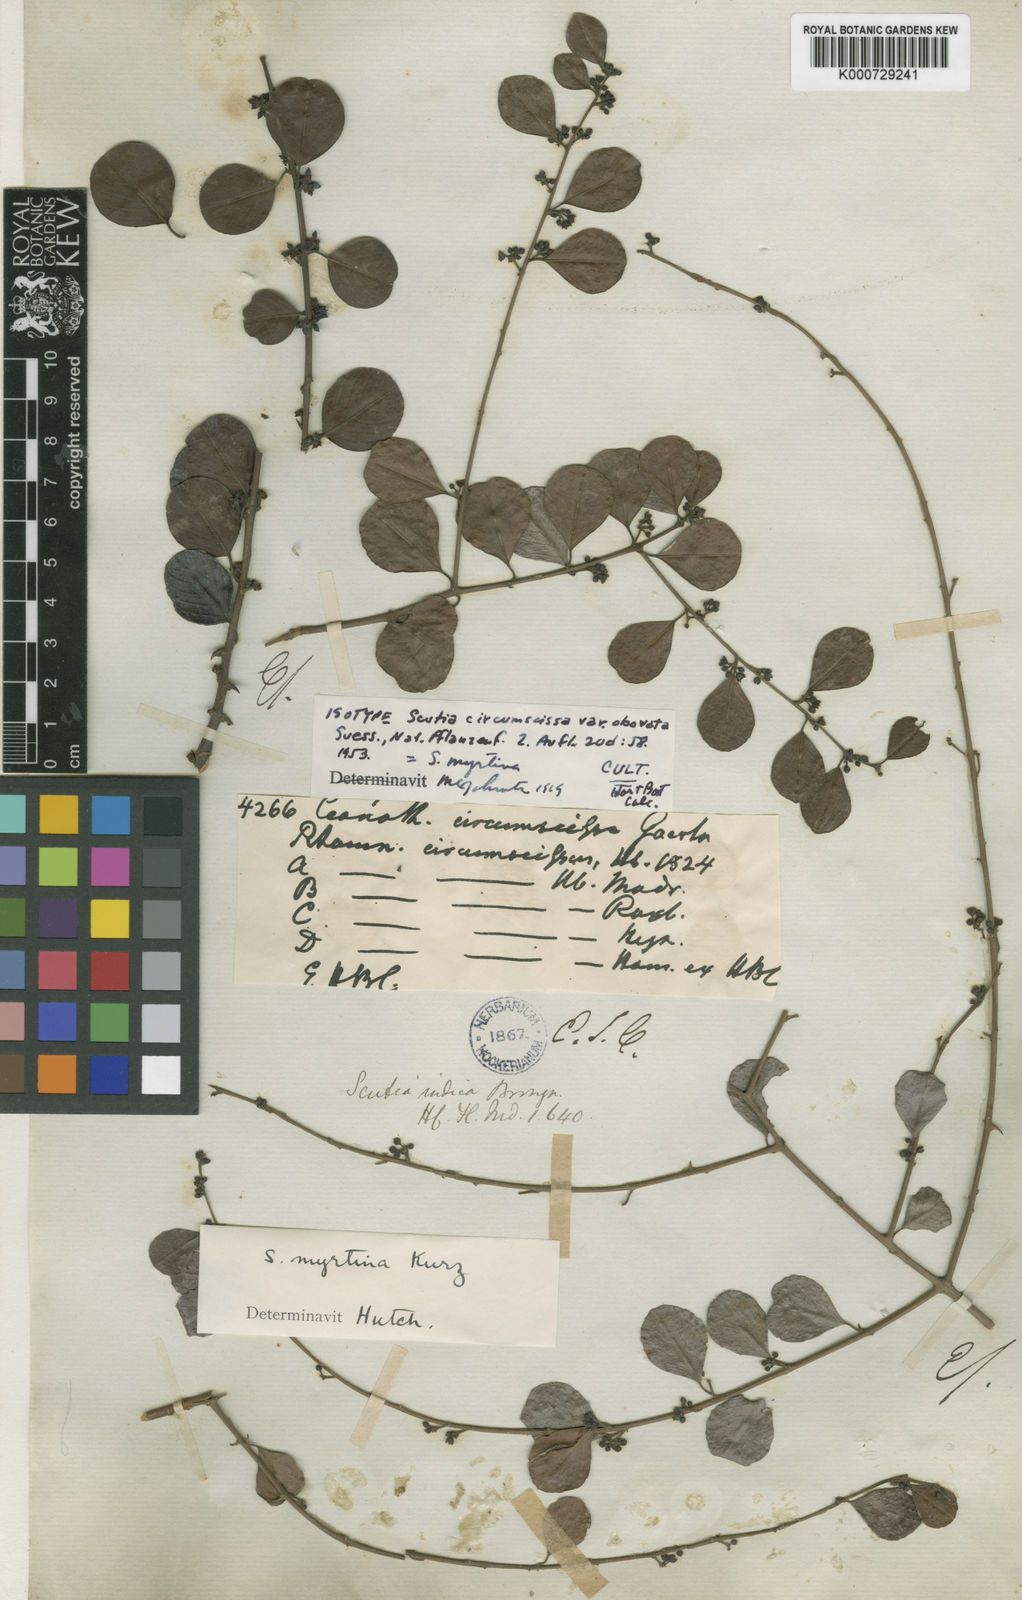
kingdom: Plantae
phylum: Tracheophyta
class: Magnoliopsida
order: Rosales
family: Rhamnaceae
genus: Scutia
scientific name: Scutia myrtina
